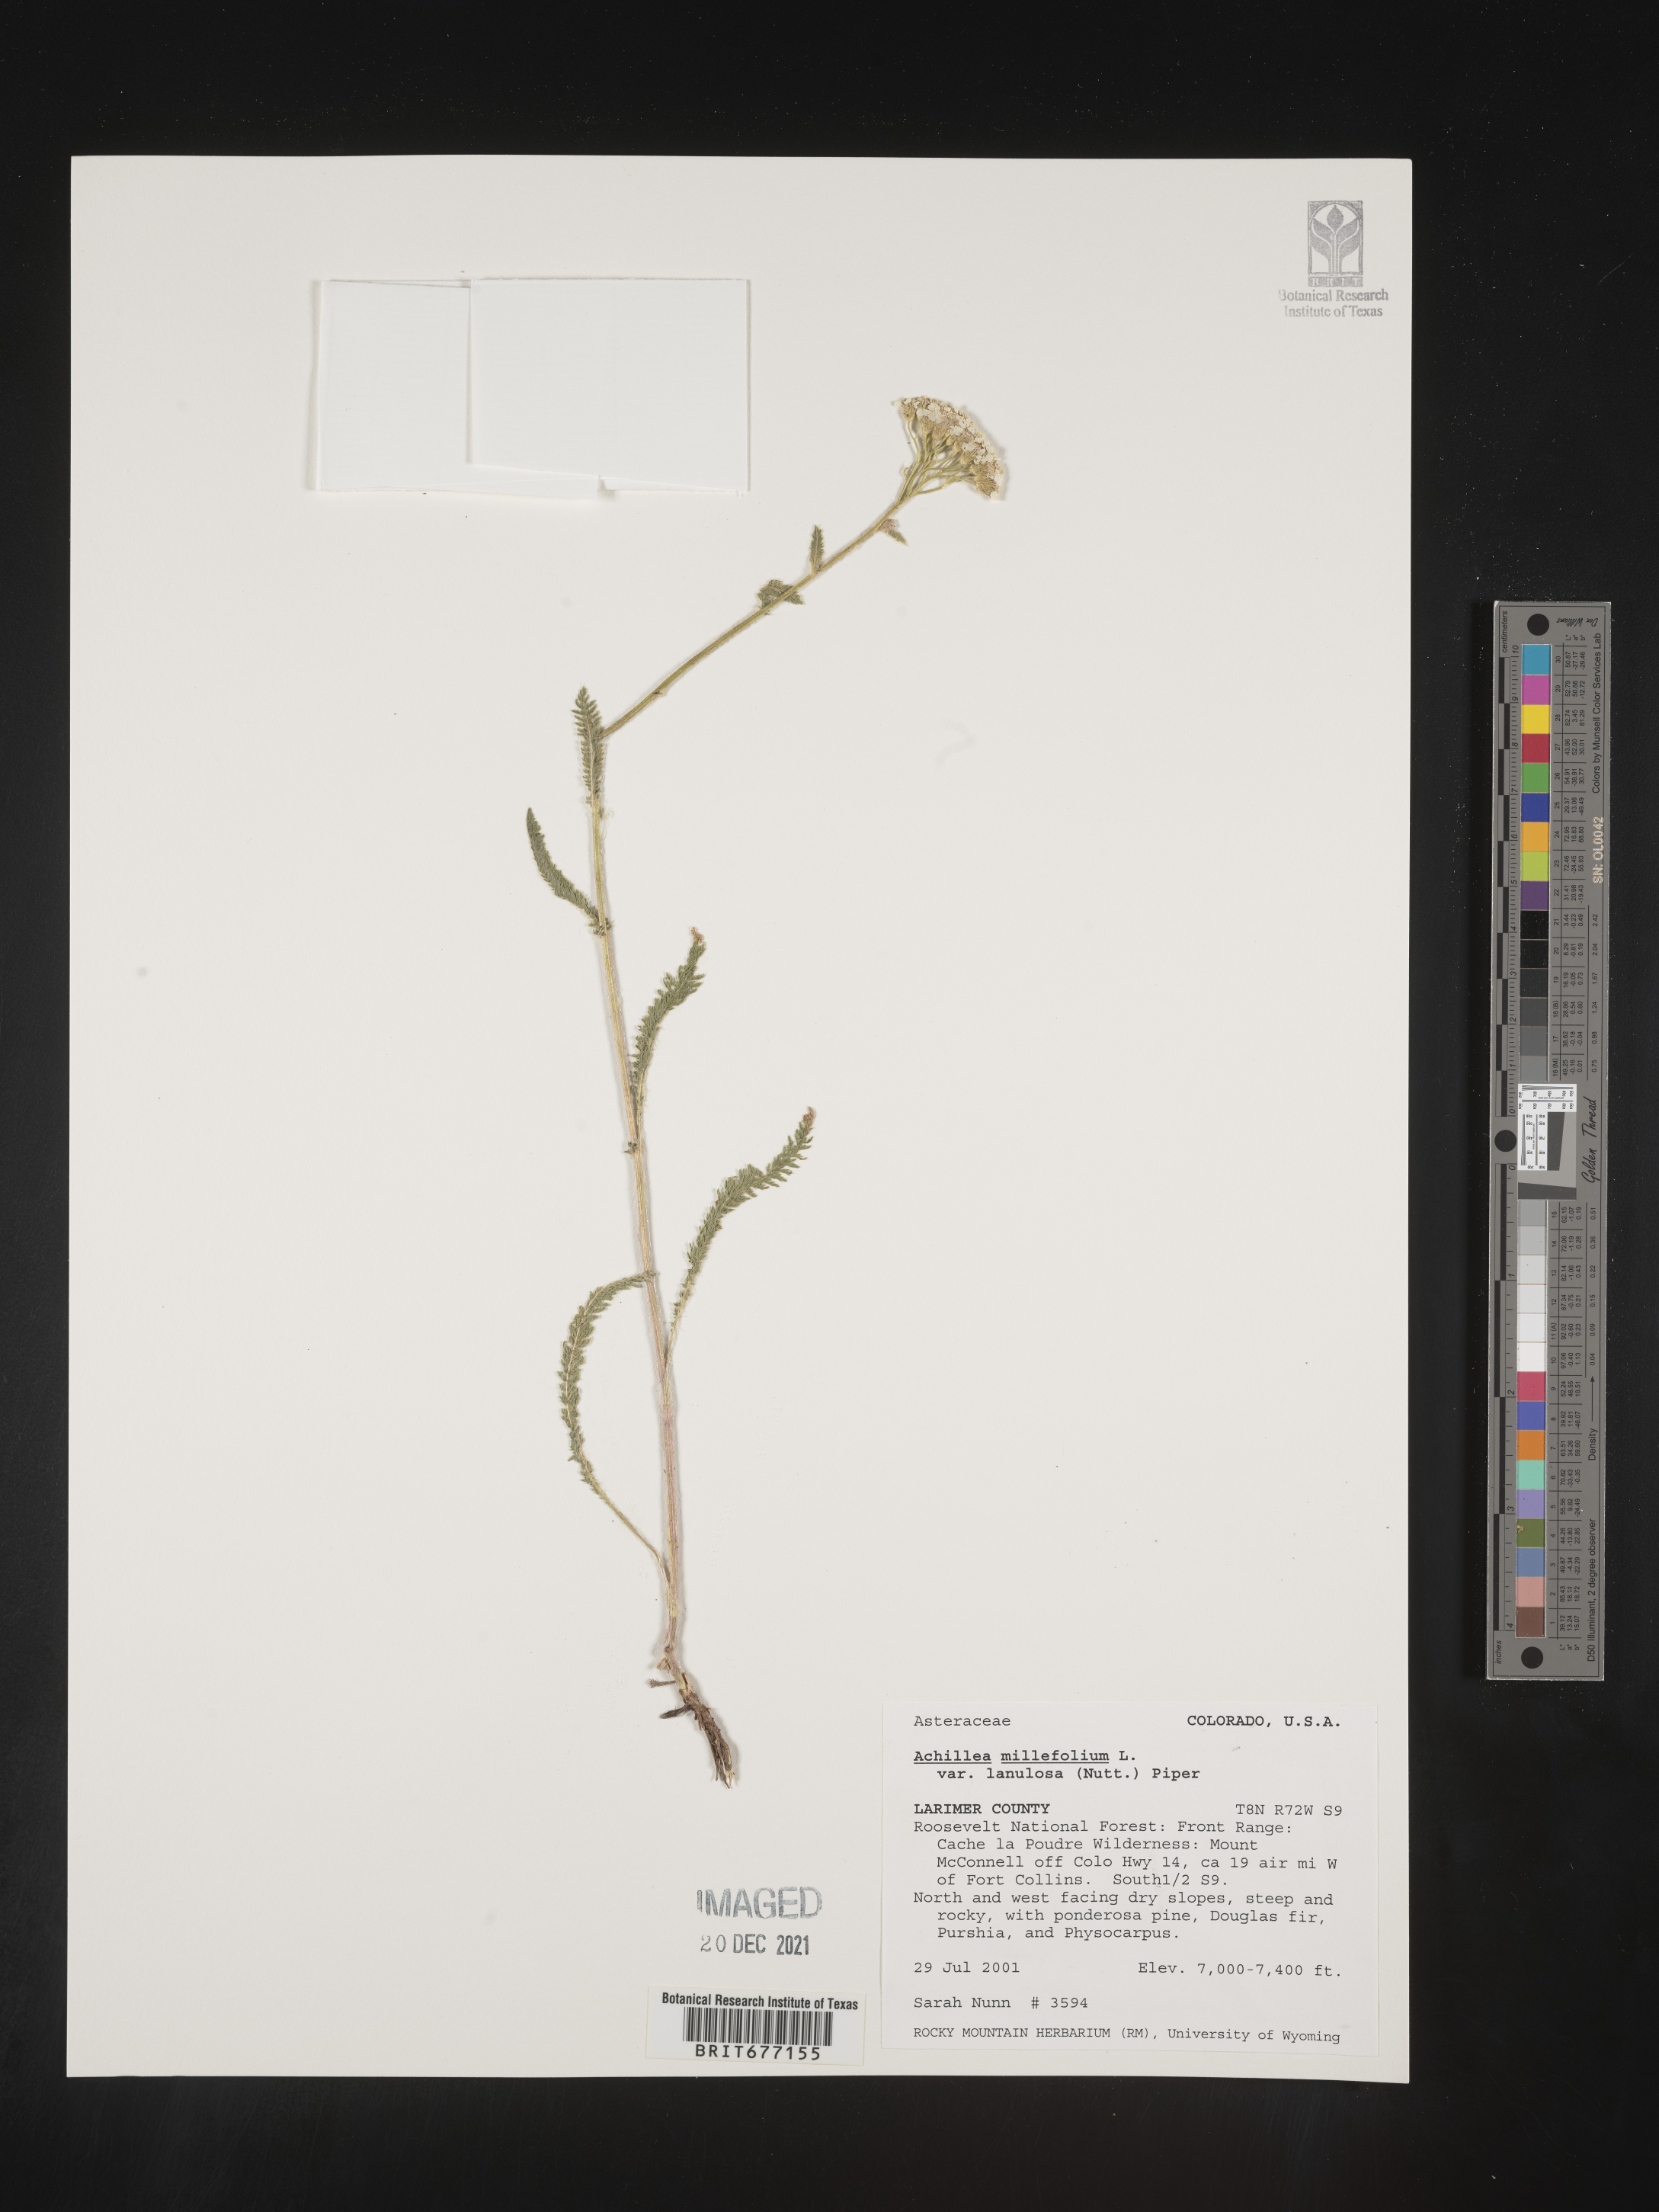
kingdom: Plantae
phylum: Tracheophyta
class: Magnoliopsida
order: Asterales
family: Asteraceae
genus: Achillea
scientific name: Achillea millefolium
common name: Yarrow
